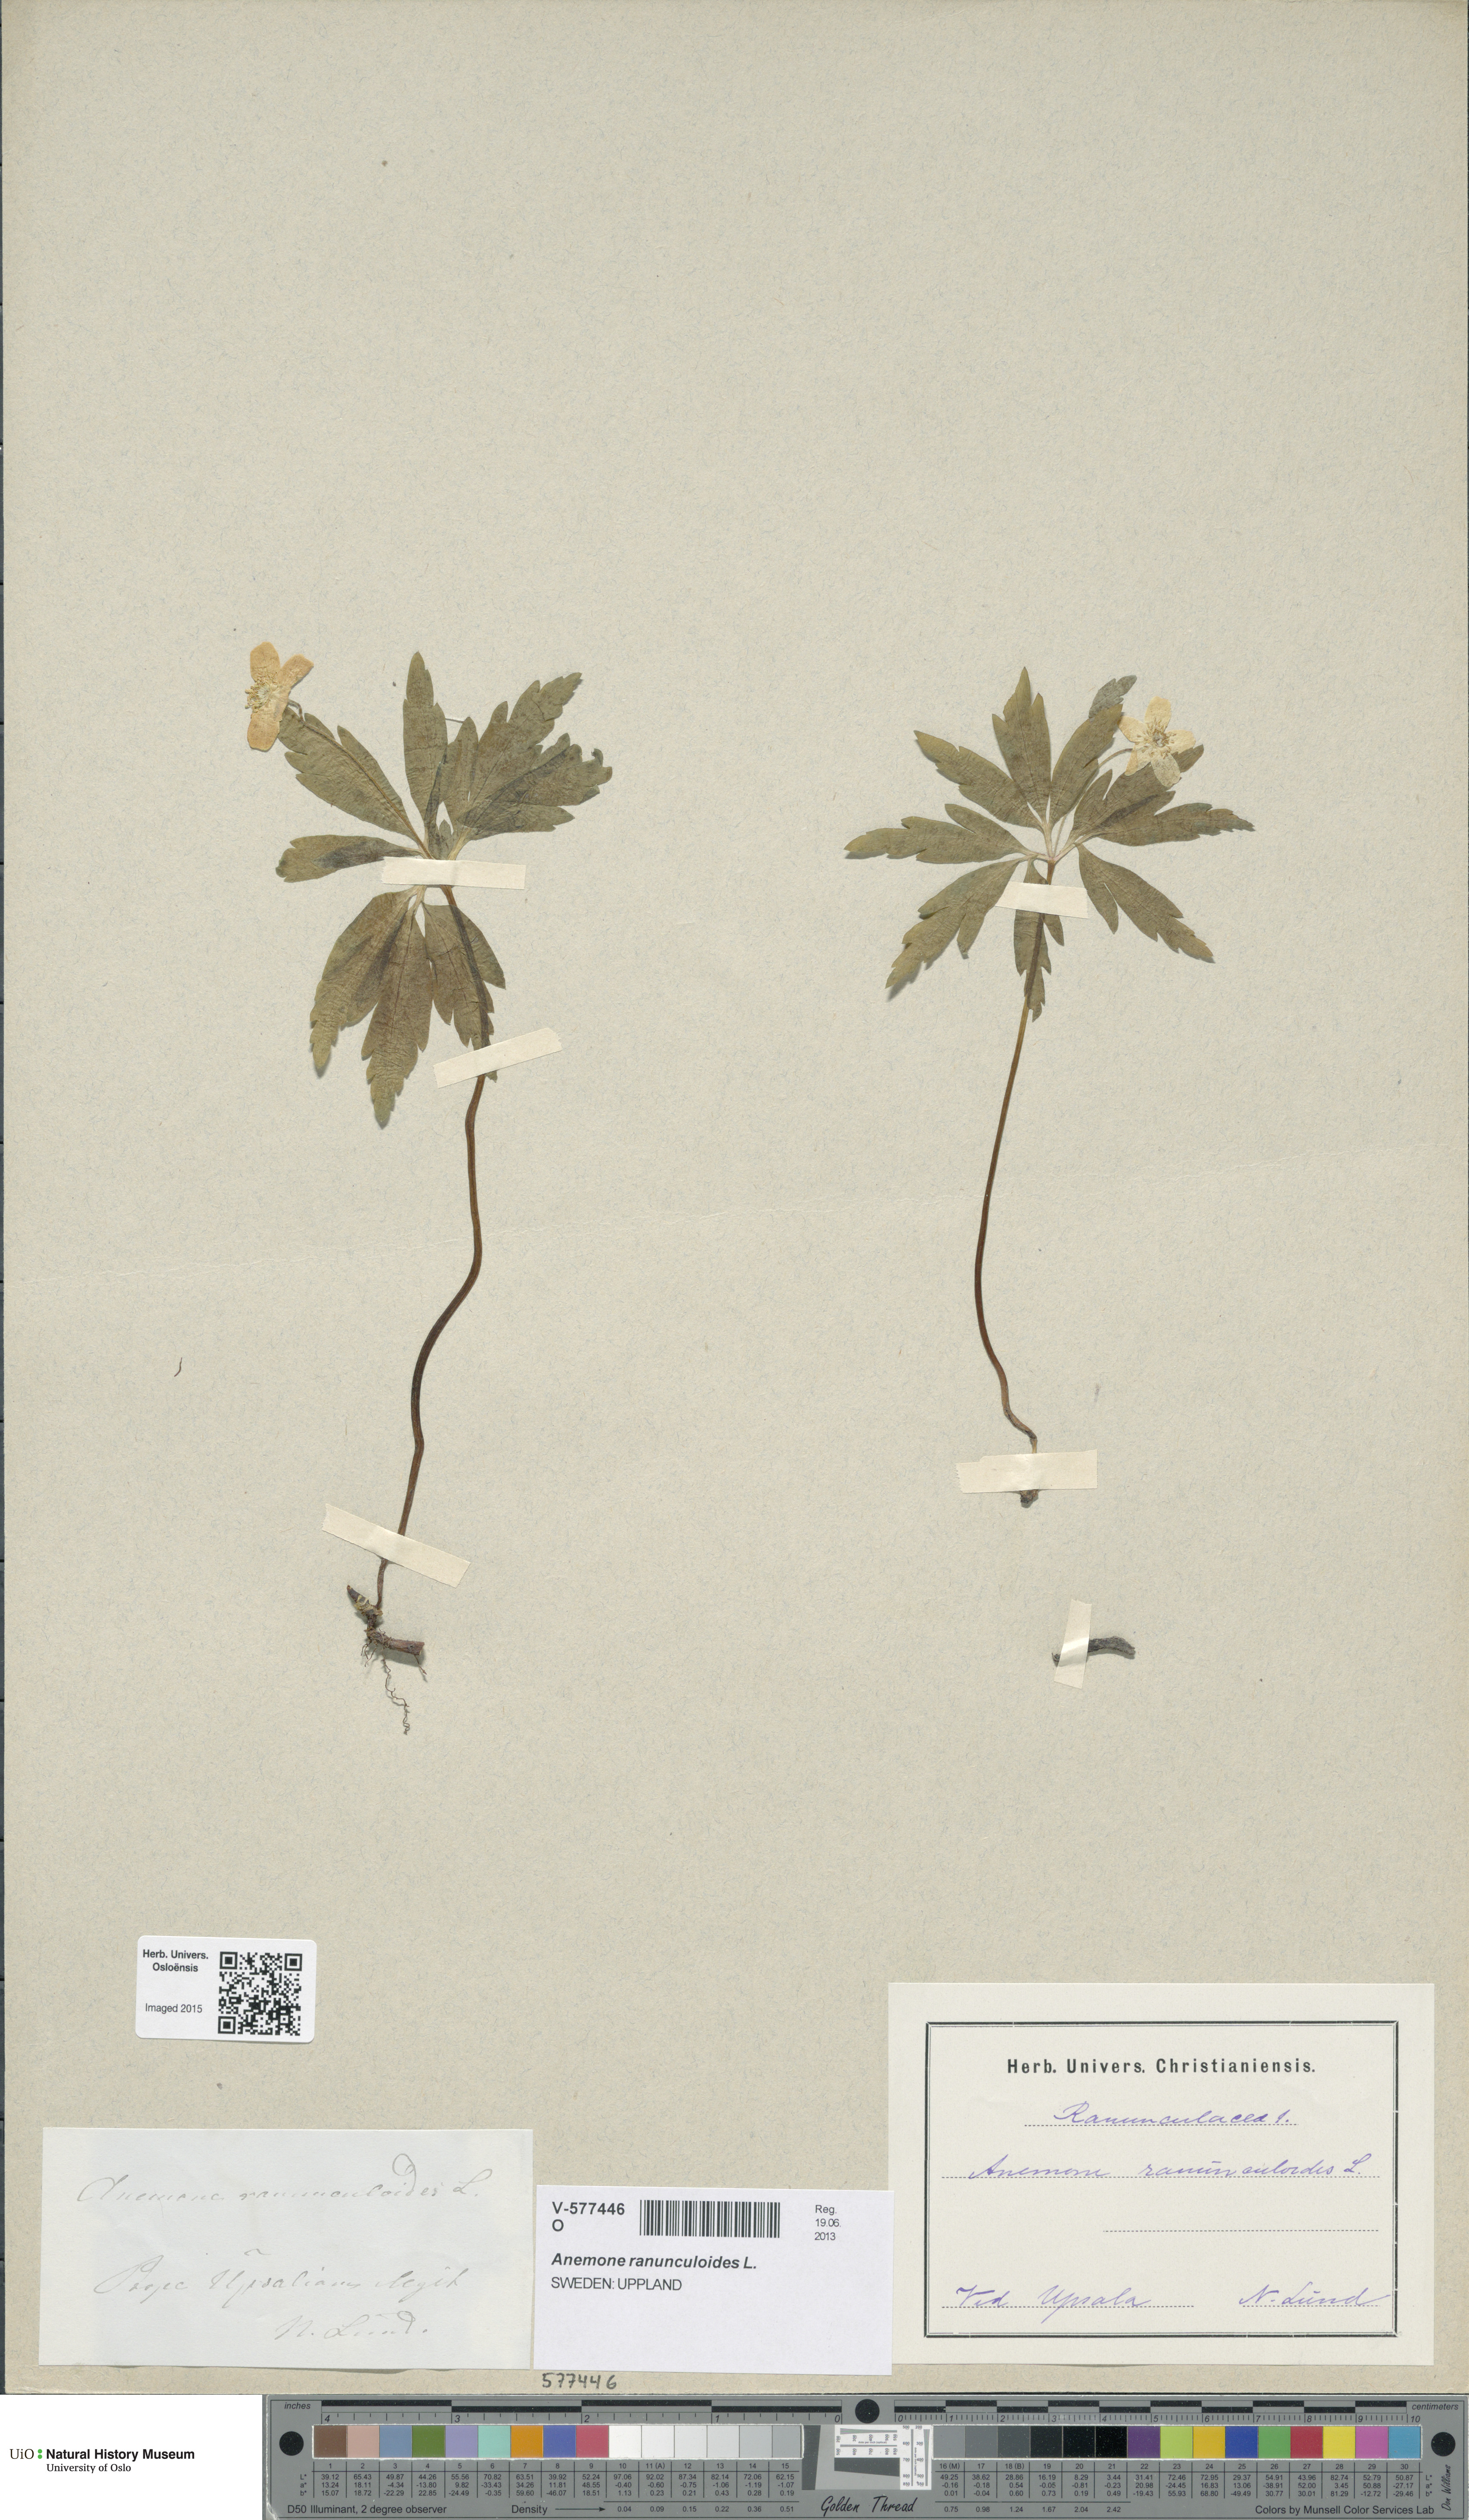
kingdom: Plantae
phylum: Tracheophyta
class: Magnoliopsida
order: Ranunculales
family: Ranunculaceae
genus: Anemone
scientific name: Anemone ranunculoides
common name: Yellow anemone
